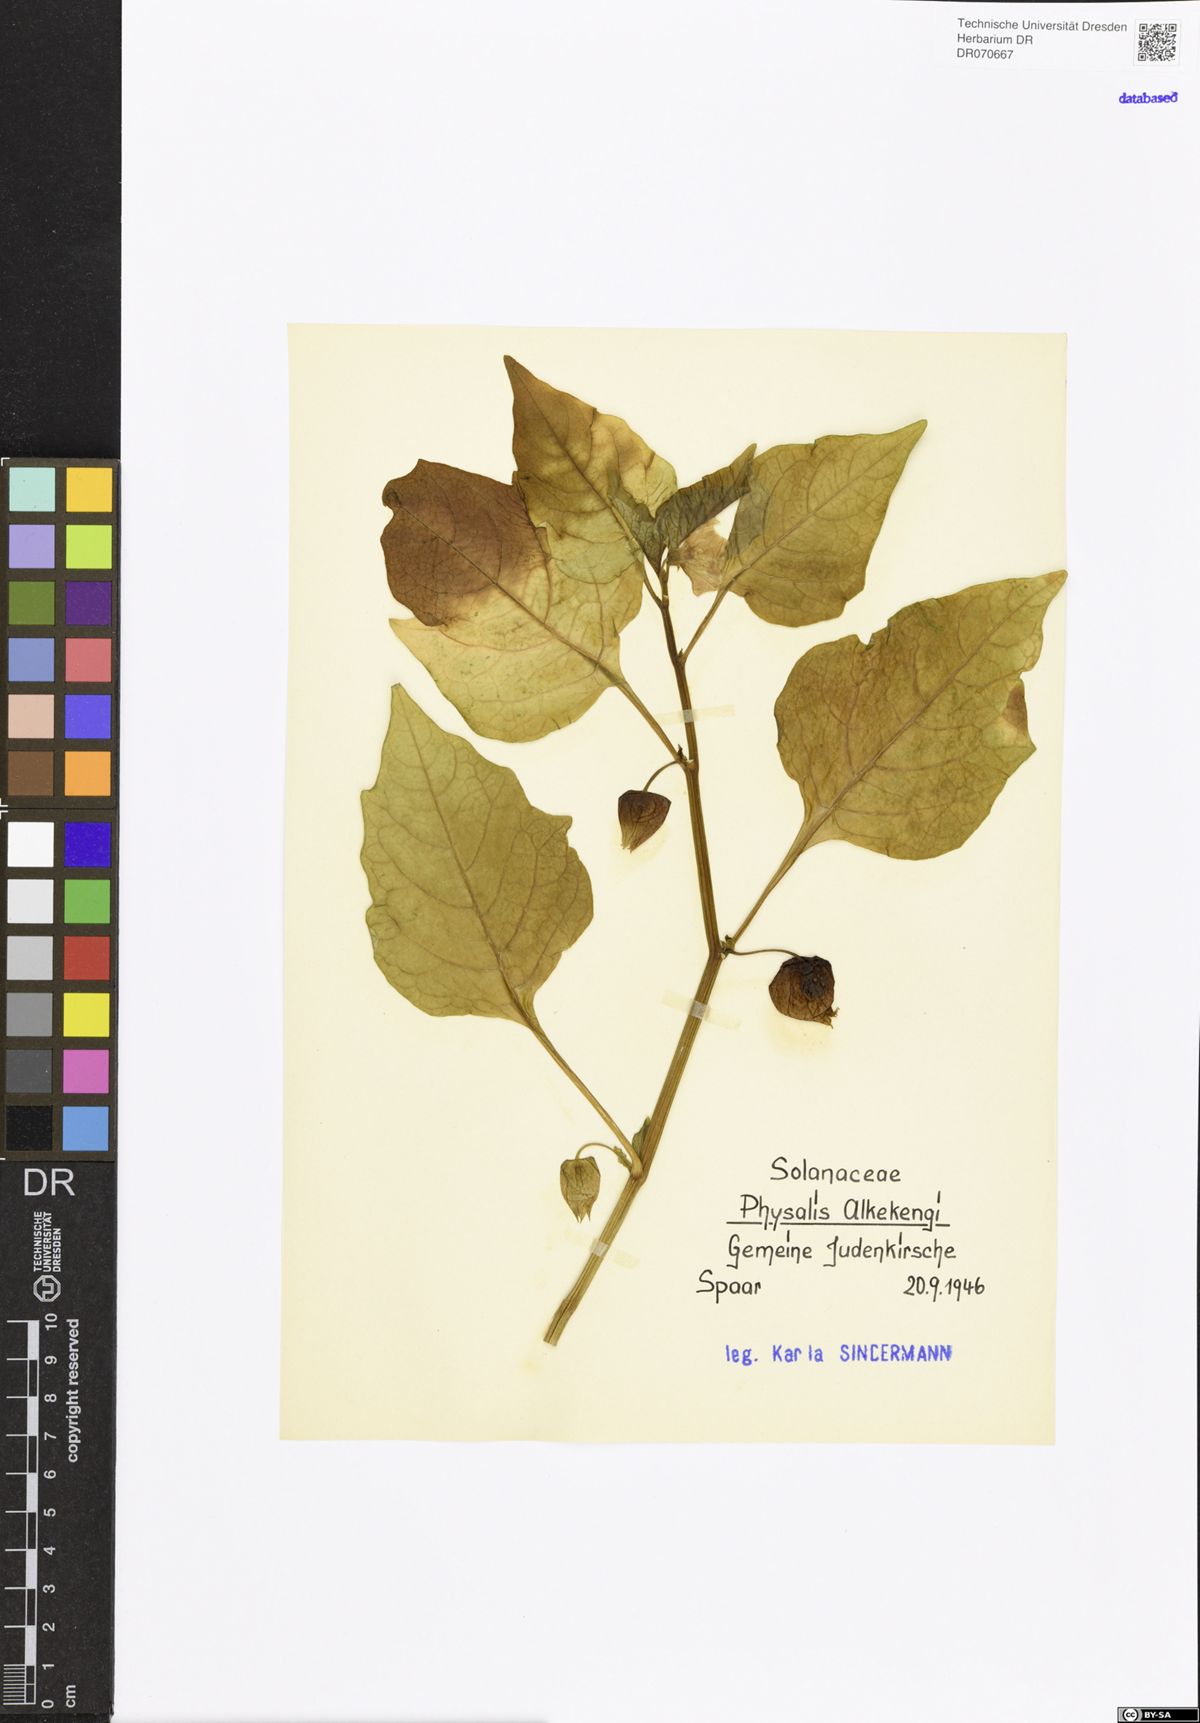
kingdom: Plantae
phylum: Tracheophyta
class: Magnoliopsida
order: Solanales
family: Solanaceae
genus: Alkekengi
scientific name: Alkekengi officinarum
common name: Japanese-lantern
